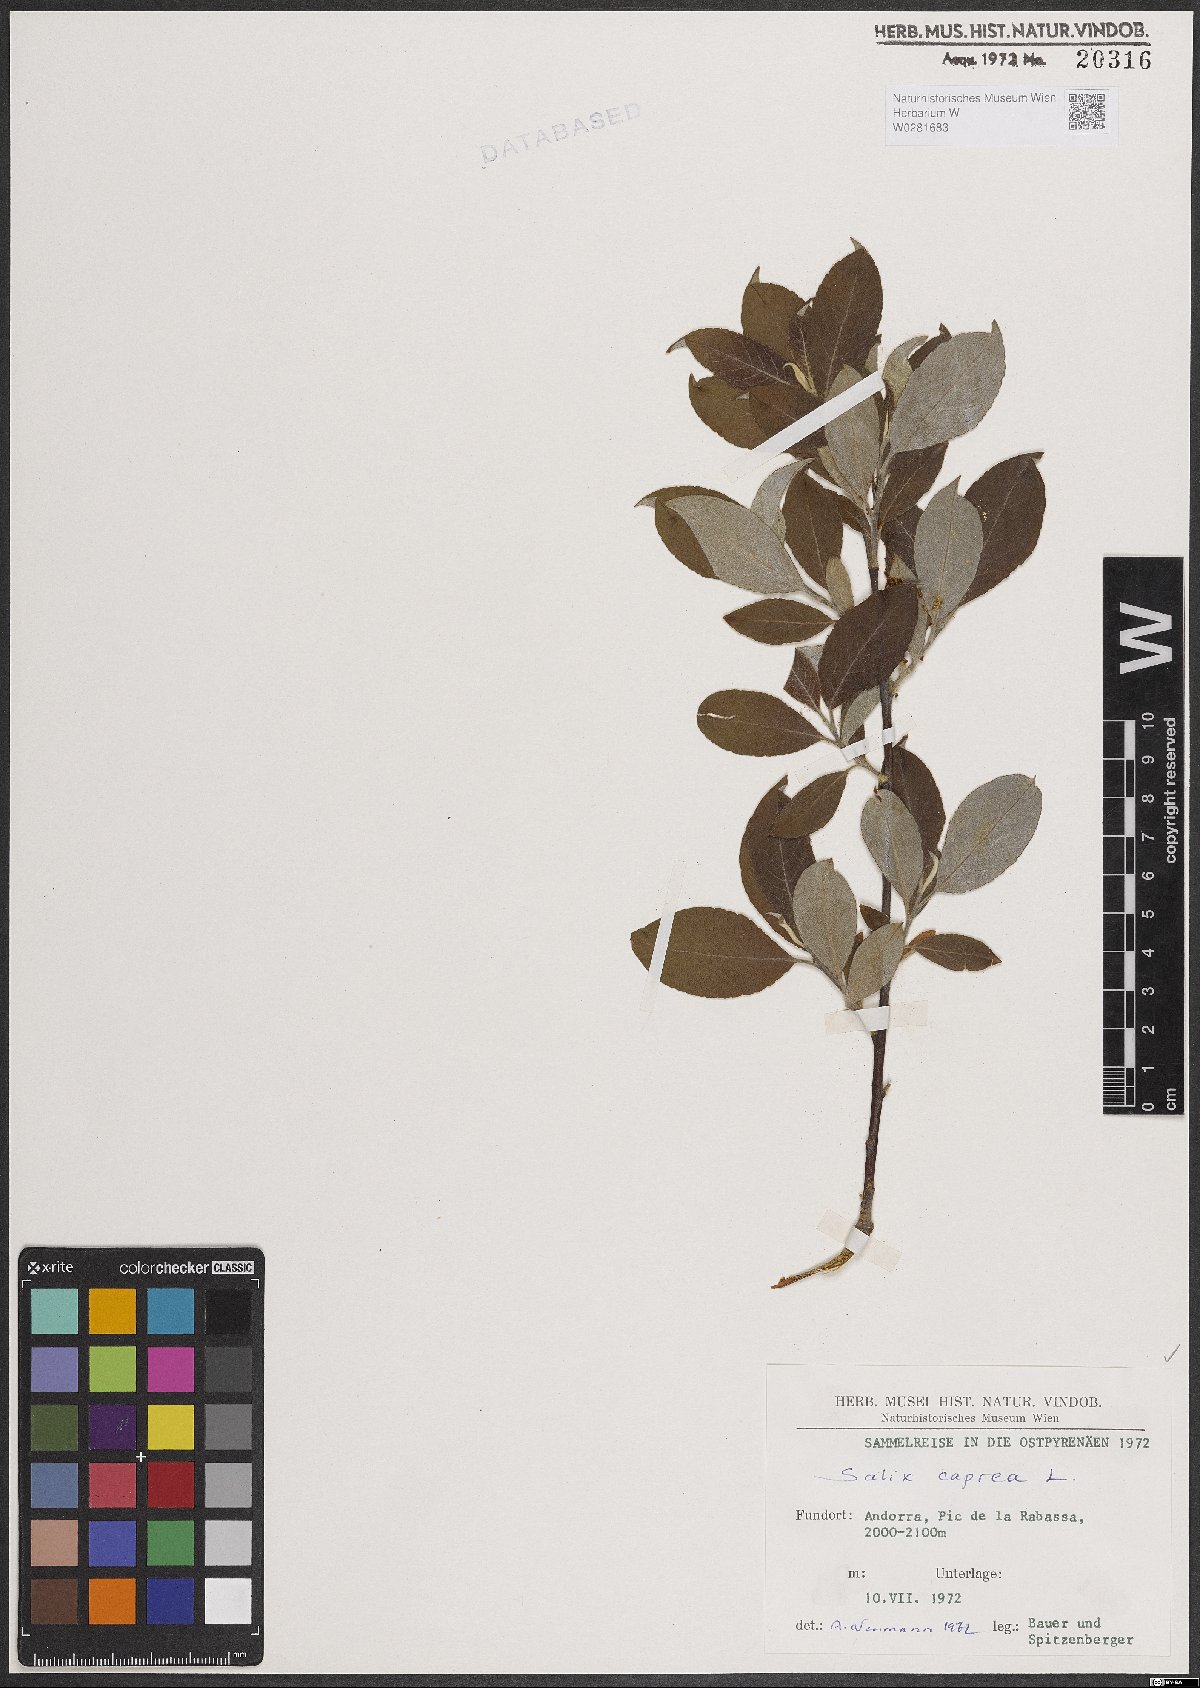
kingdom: Plantae
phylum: Tracheophyta
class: Magnoliopsida
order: Malpighiales
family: Salicaceae
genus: Salix
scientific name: Salix caprea
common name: Goat willow
